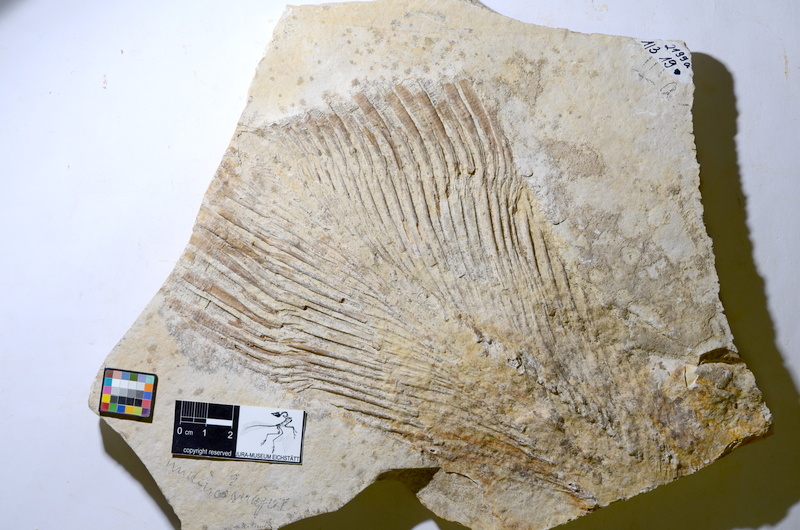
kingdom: Animalia
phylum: Chordata
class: Coelacanthi
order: Coelacanthiformes
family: Mawsoniidae
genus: Libys
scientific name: Libys
